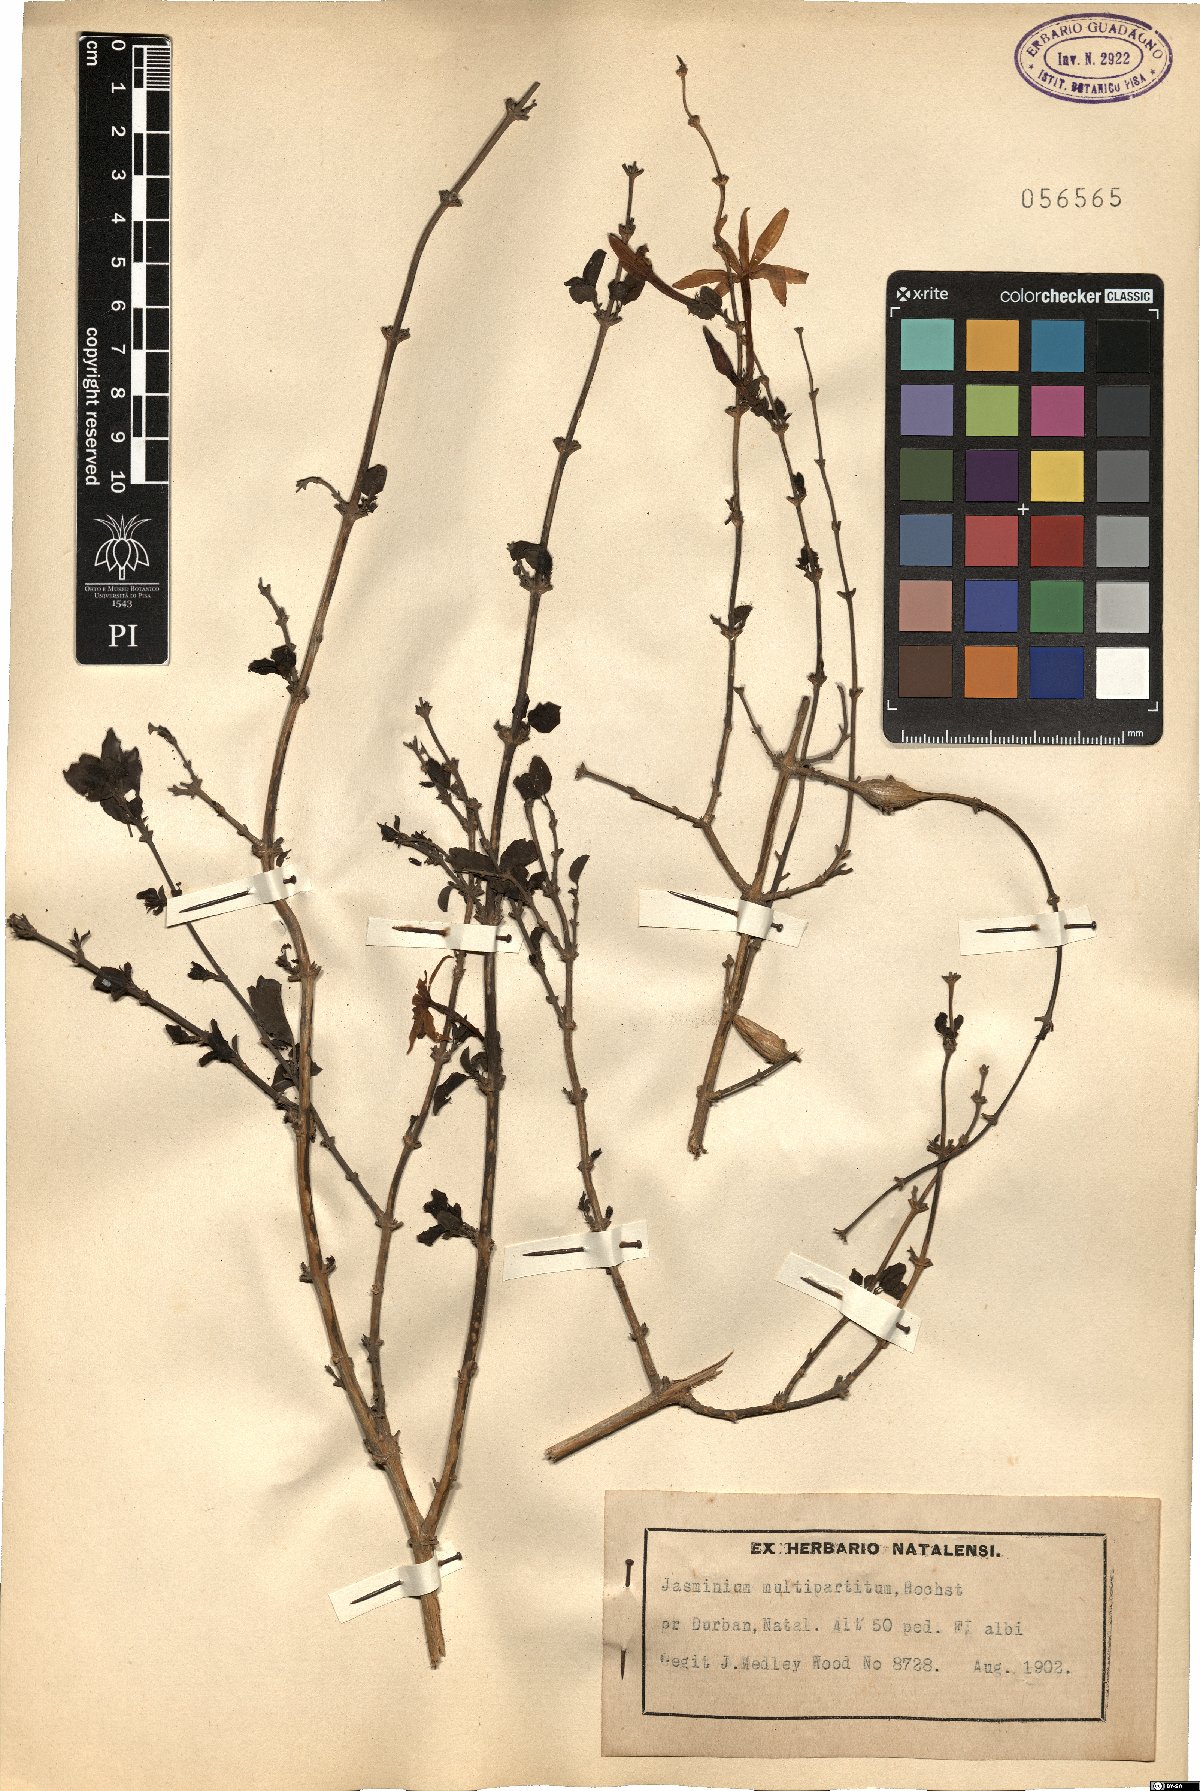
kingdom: Plantae
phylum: Tracheophyta
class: Magnoliopsida
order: Lamiales
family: Oleaceae
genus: Jasminum
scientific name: Jasminum multipartitum
